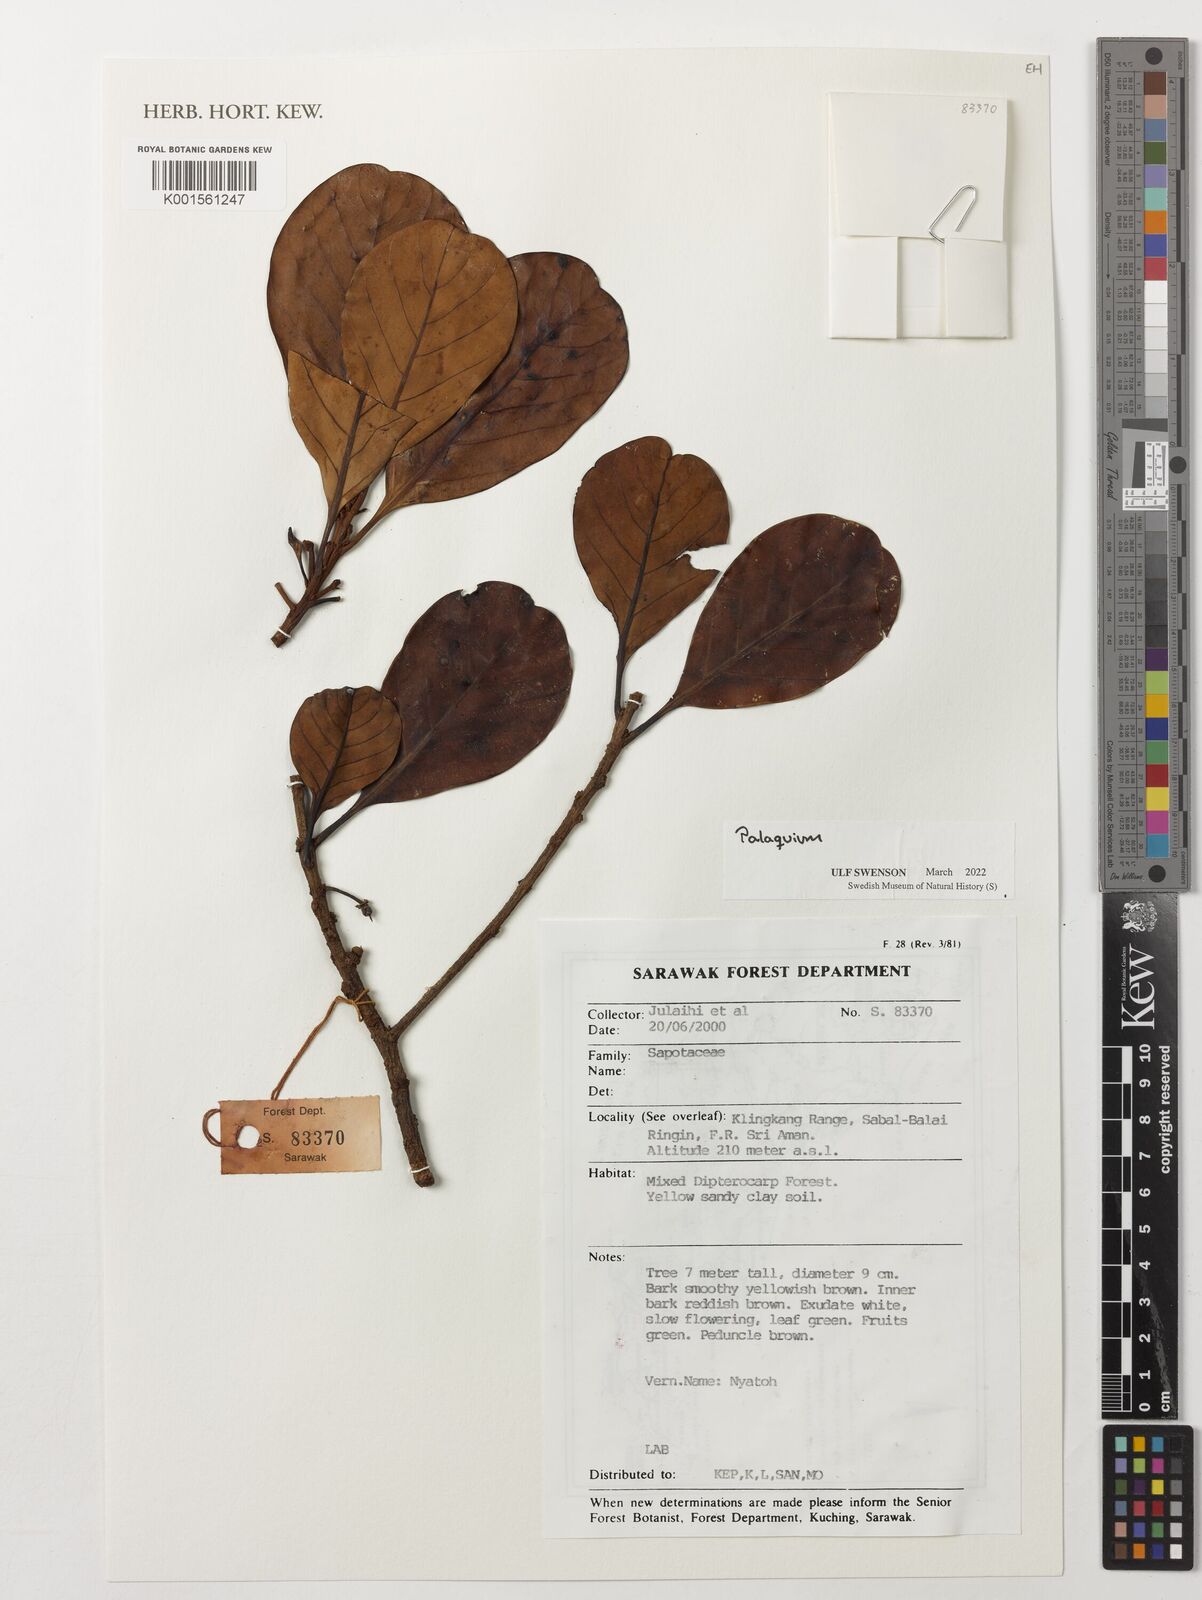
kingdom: Plantae
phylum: Tracheophyta
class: Magnoliopsida
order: Ericales
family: Sapotaceae
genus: Palaquium
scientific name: Palaquium
